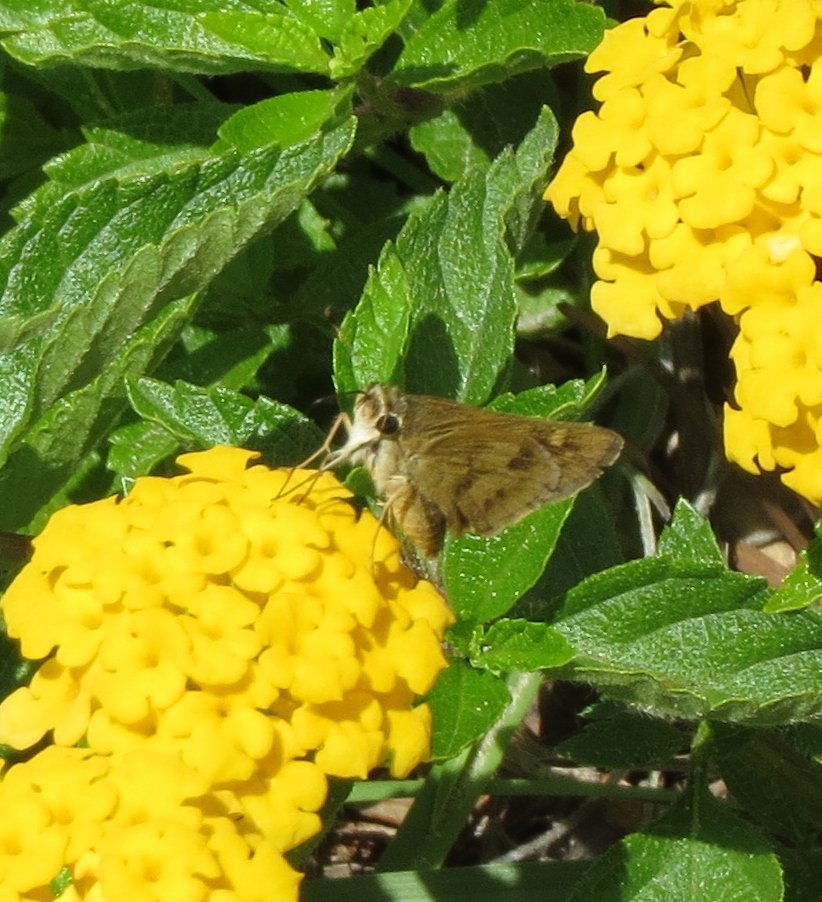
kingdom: Animalia
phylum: Arthropoda
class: Insecta
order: Lepidoptera
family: Hesperiidae
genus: Polites
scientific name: Polites vibex
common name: Whirlabout
